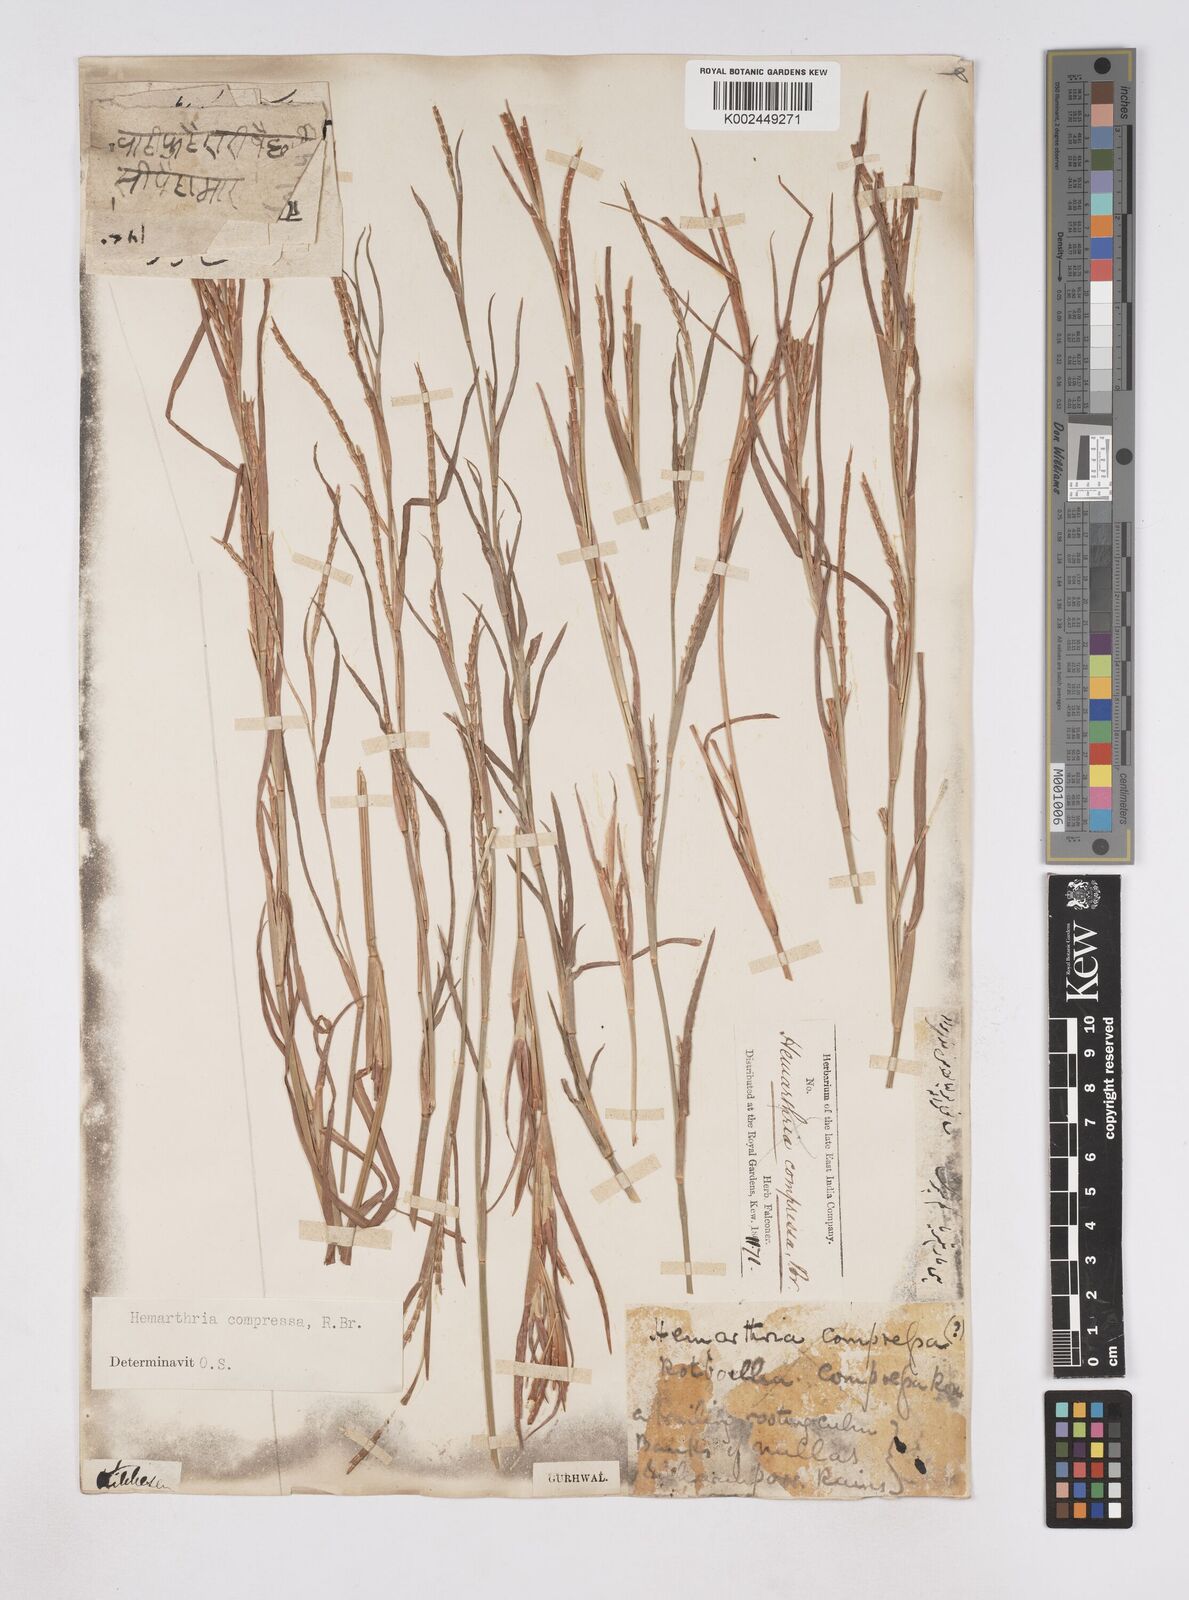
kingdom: Plantae
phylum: Tracheophyta
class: Liliopsida
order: Poales
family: Poaceae
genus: Hemarthria
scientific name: Hemarthria compressa
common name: Whip grass
